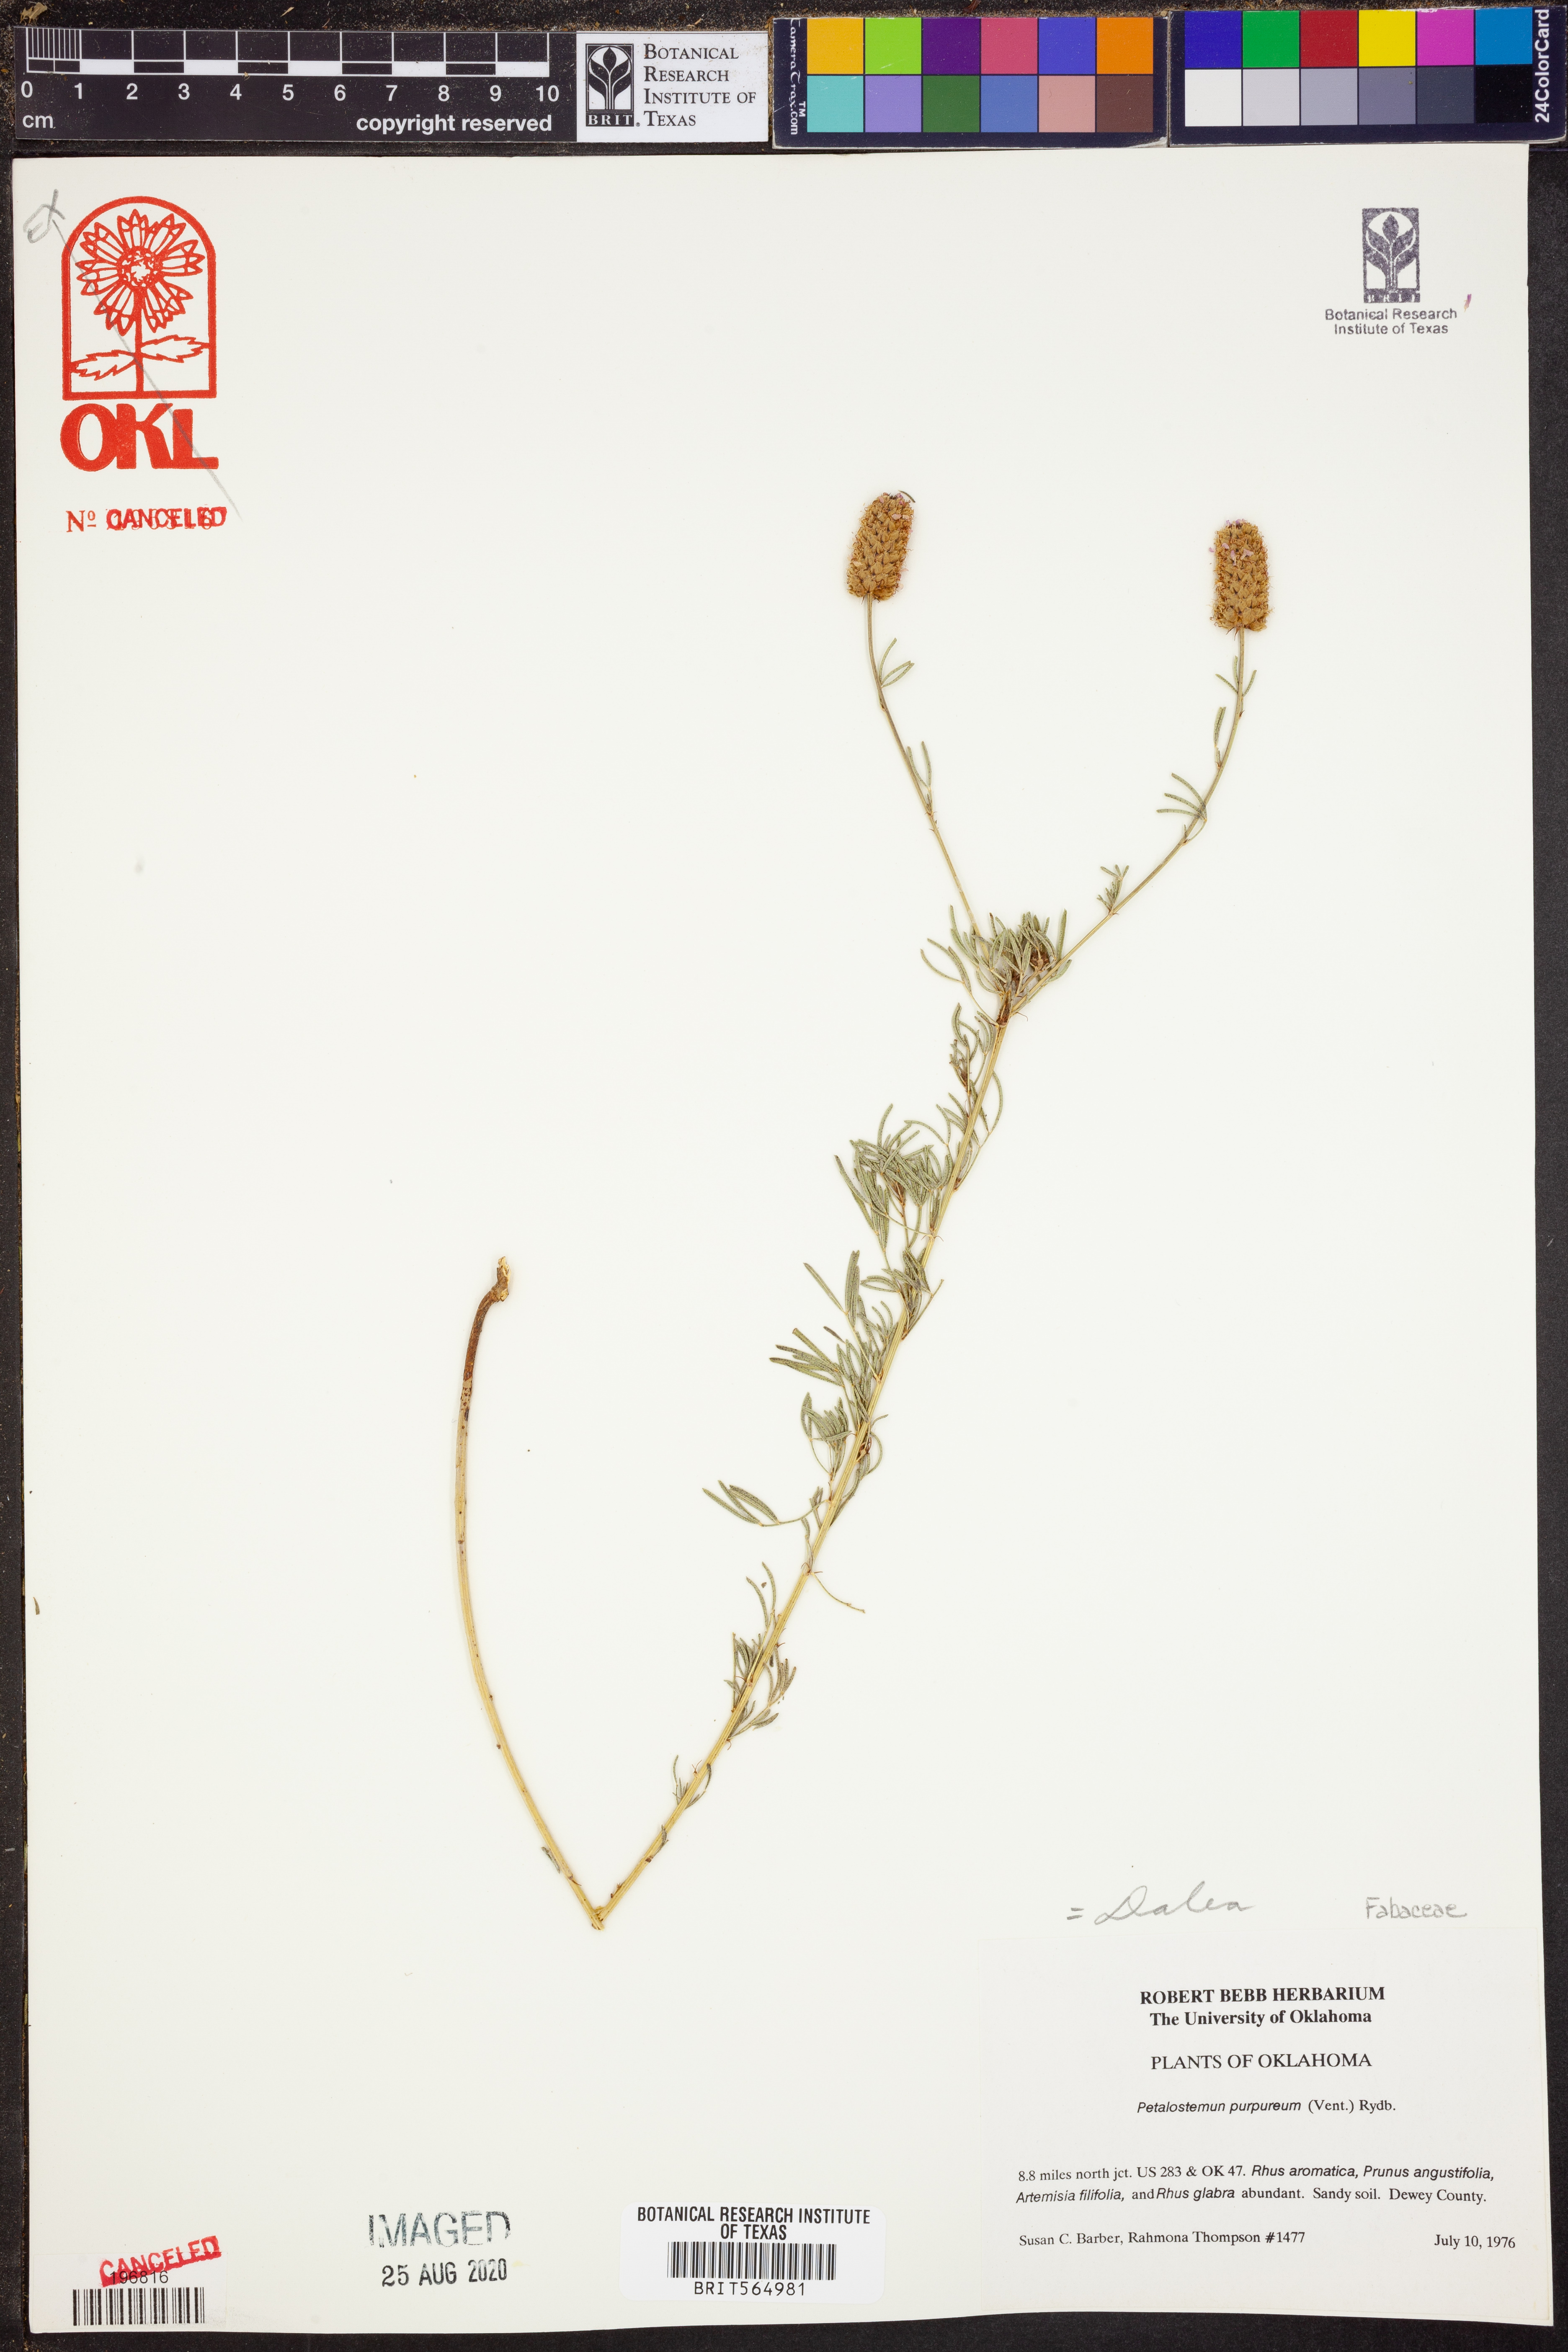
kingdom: Plantae
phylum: Tracheophyta
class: Magnoliopsida
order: Fabales
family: Fabaceae
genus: Dalea
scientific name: Dalea purpurea
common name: Purple prairie-clover
